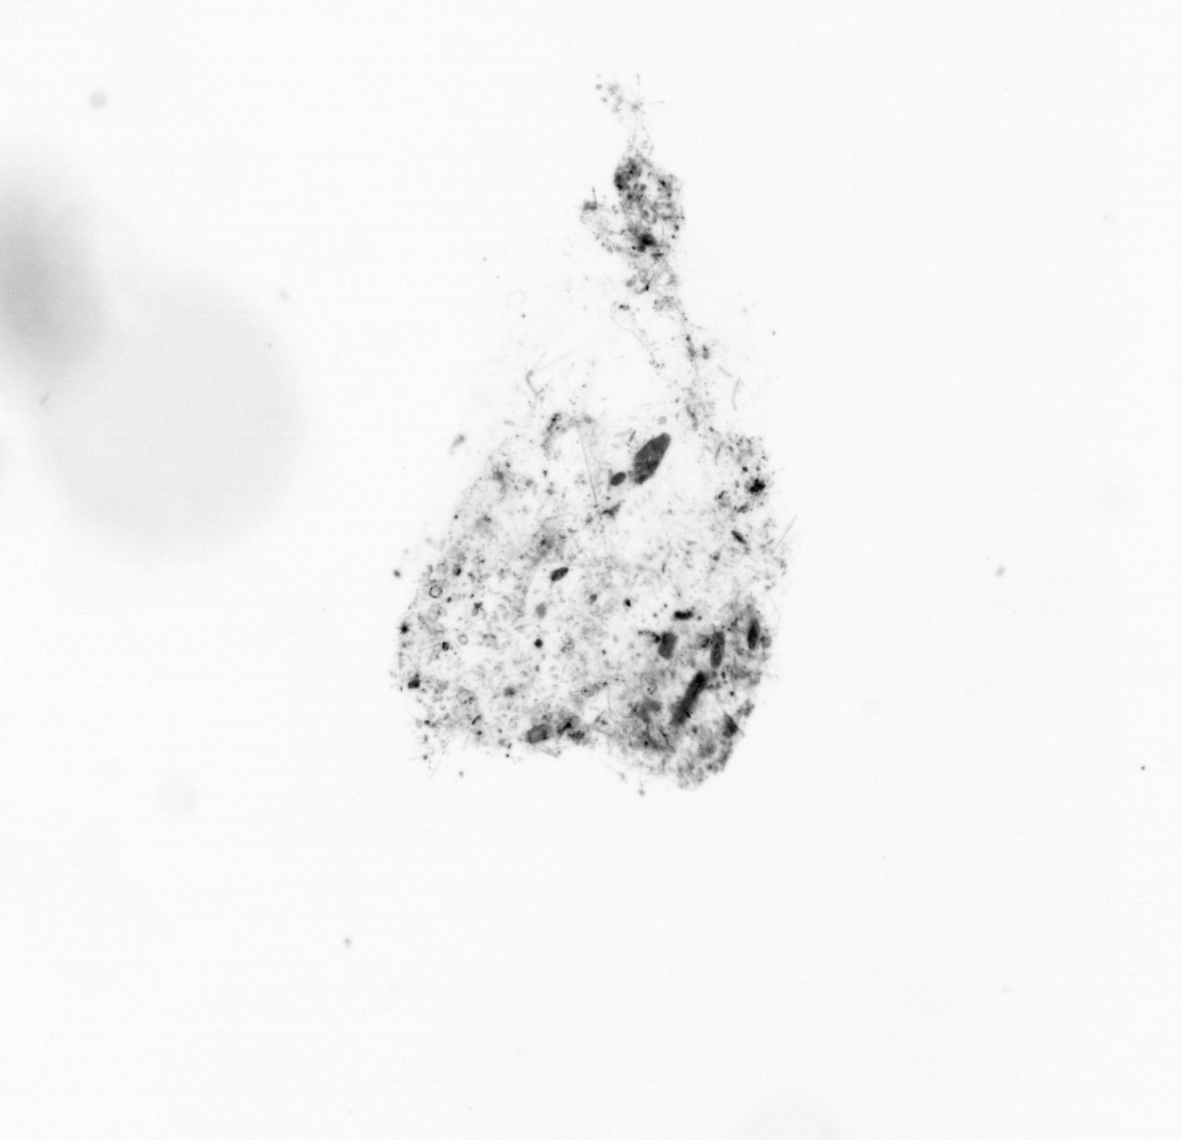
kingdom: Animalia
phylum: Chordata
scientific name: Chordata
